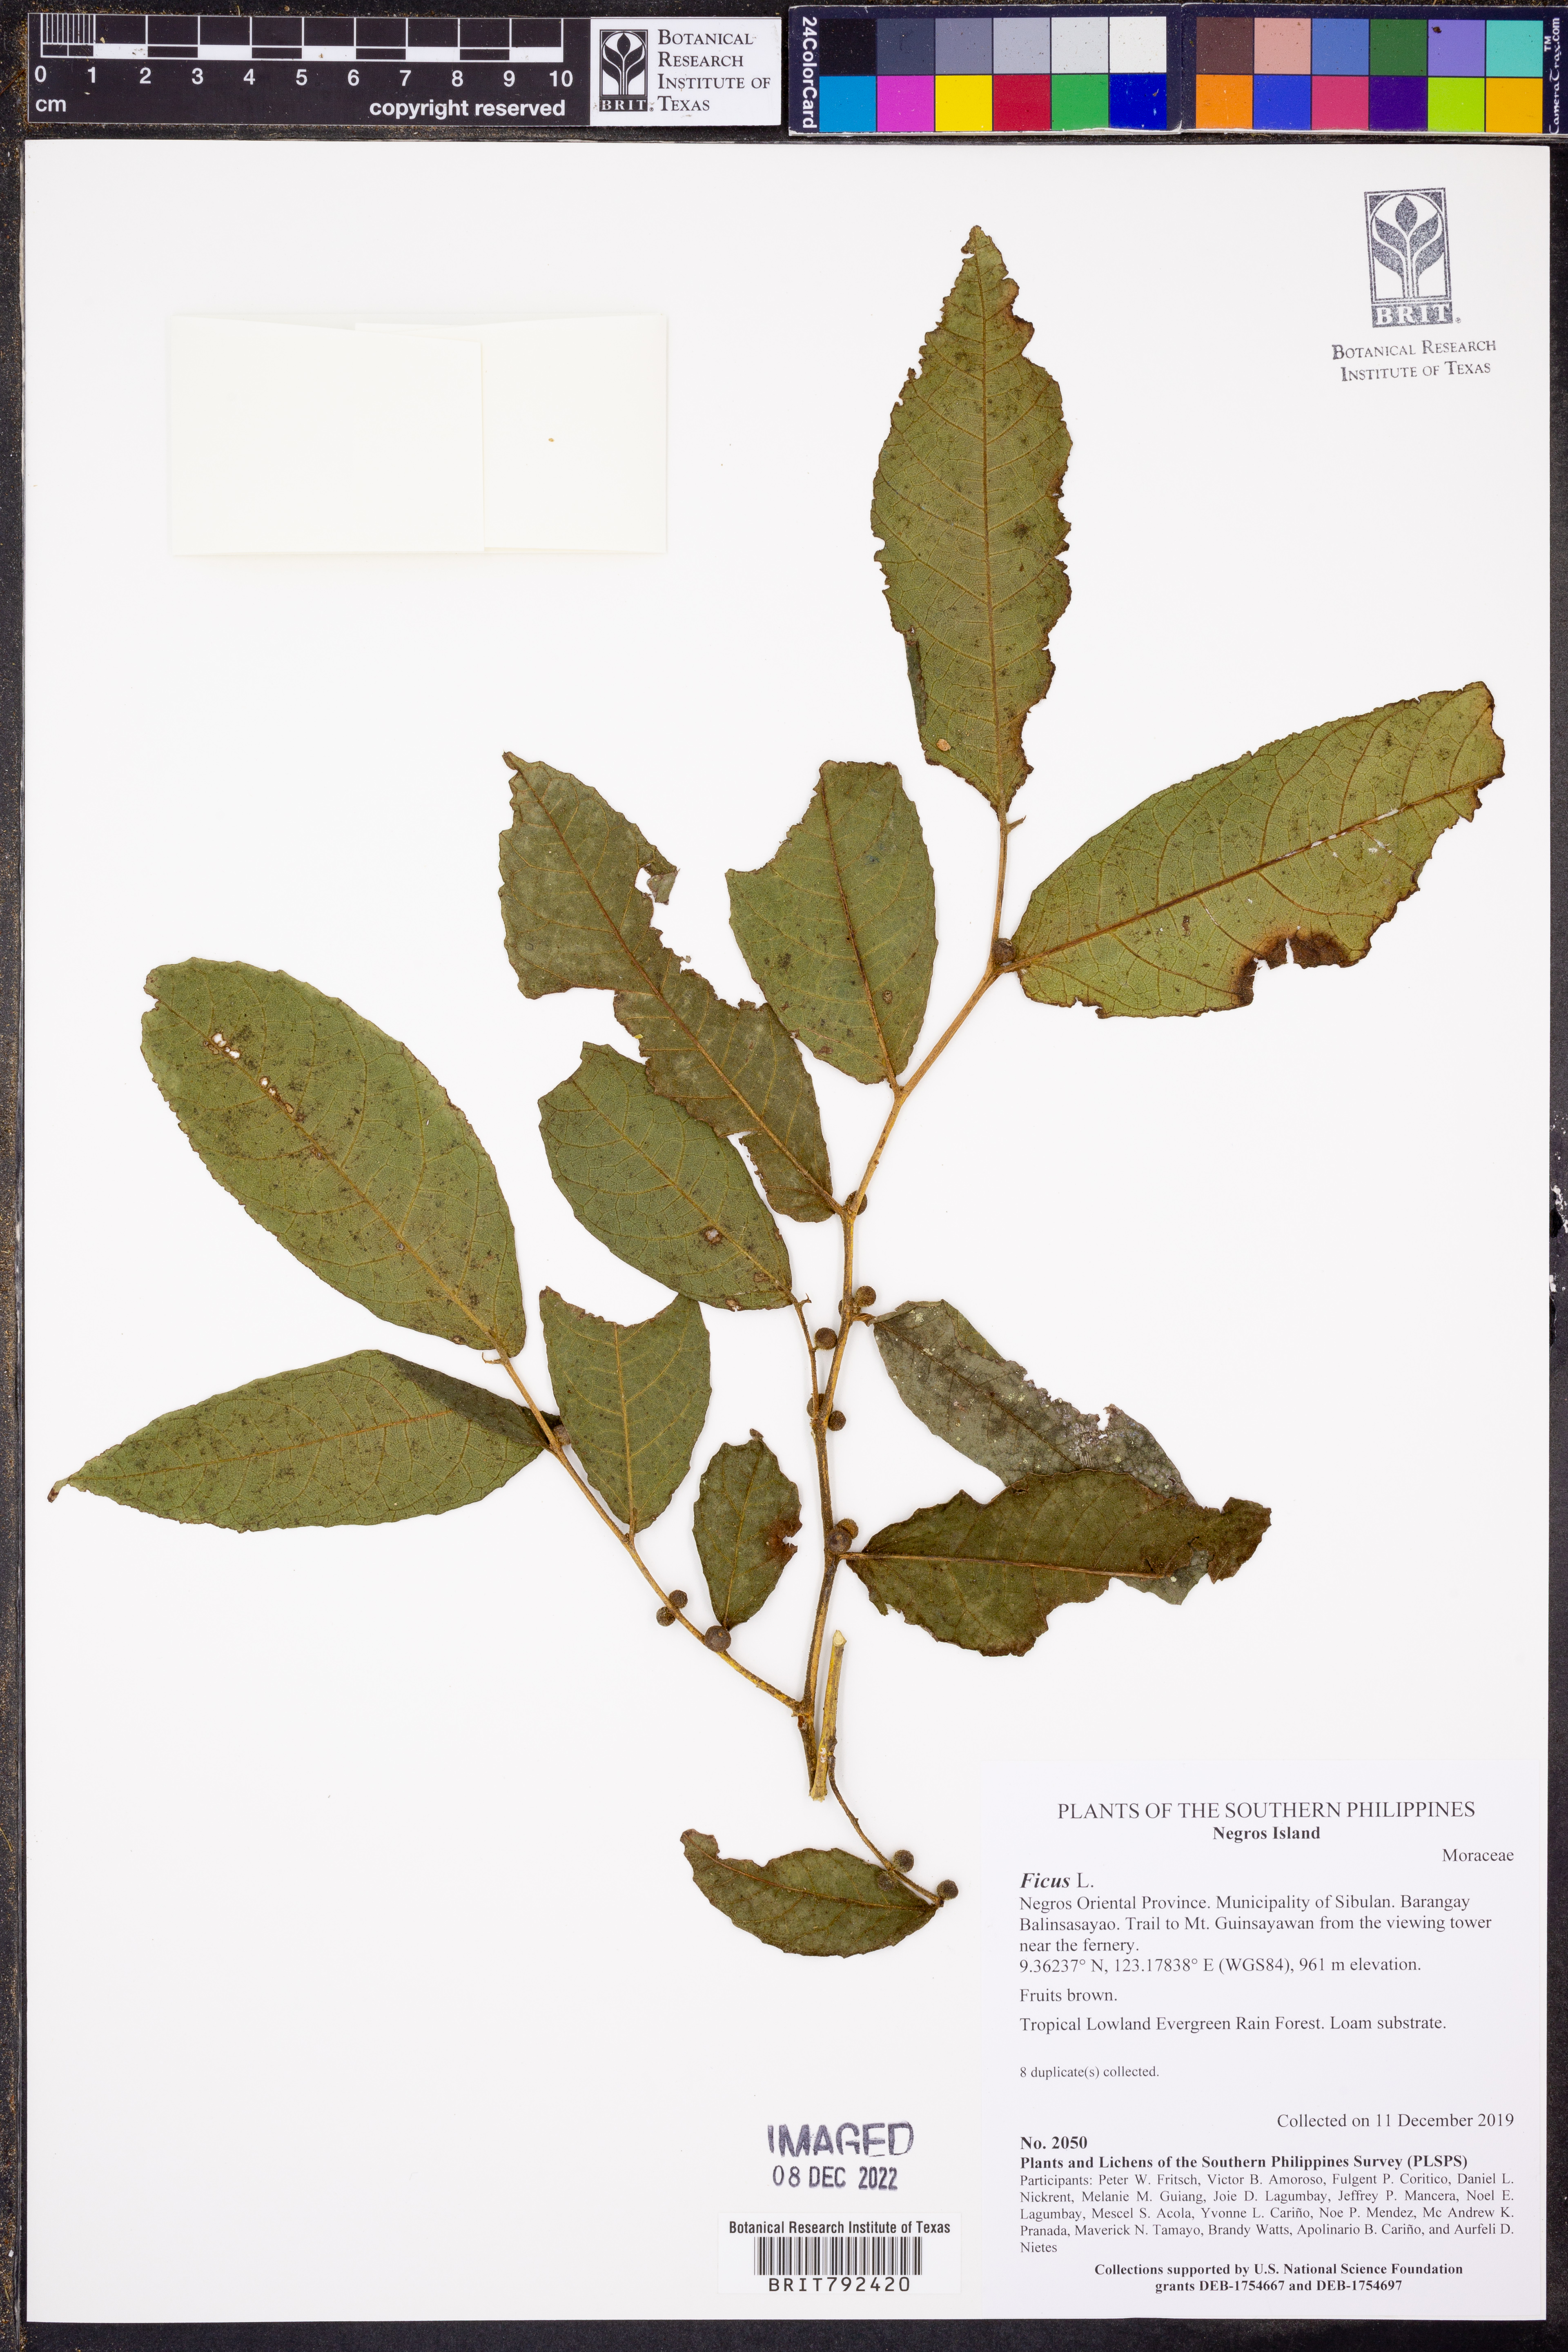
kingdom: Plantae
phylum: Tracheophyta
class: Magnoliopsida
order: Rosales
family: Moraceae
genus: Ficus
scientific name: Ficus
